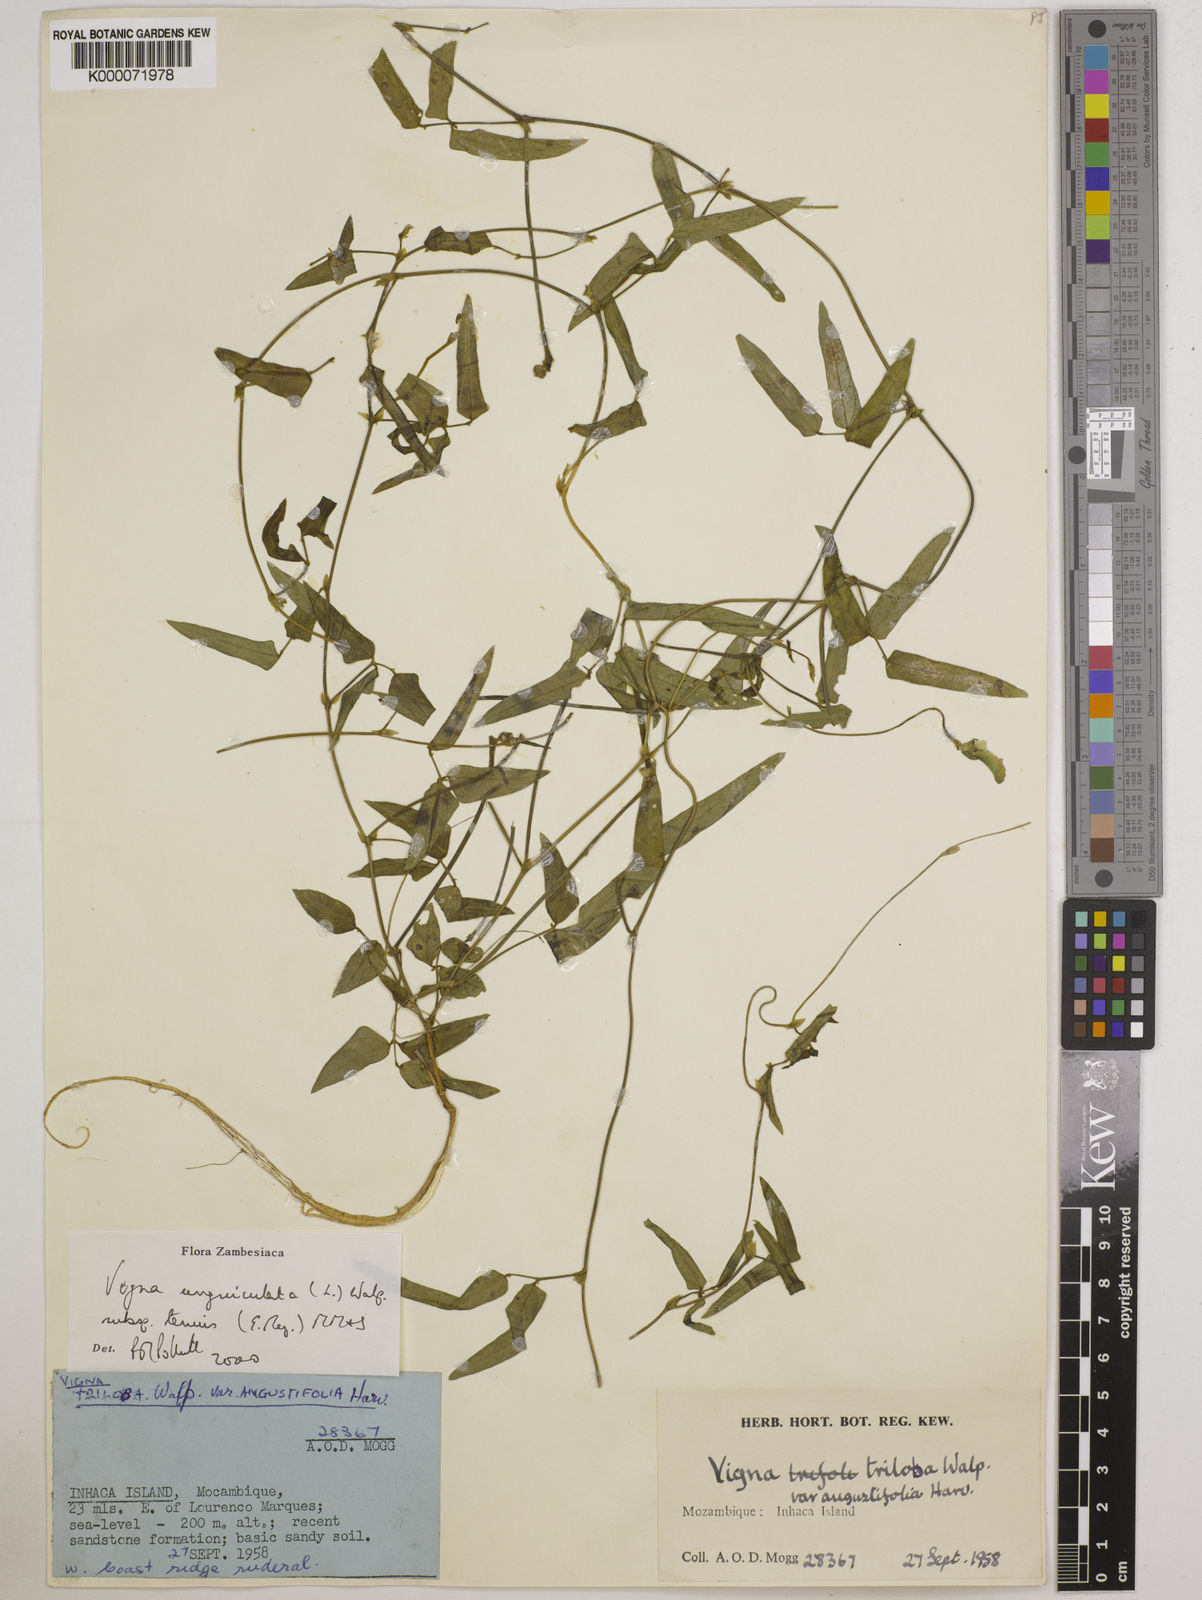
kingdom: Plantae
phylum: Tracheophyta
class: Magnoliopsida
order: Fabales
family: Fabaceae
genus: Vigna
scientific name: Vigna unguiculata
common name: Cowpea
